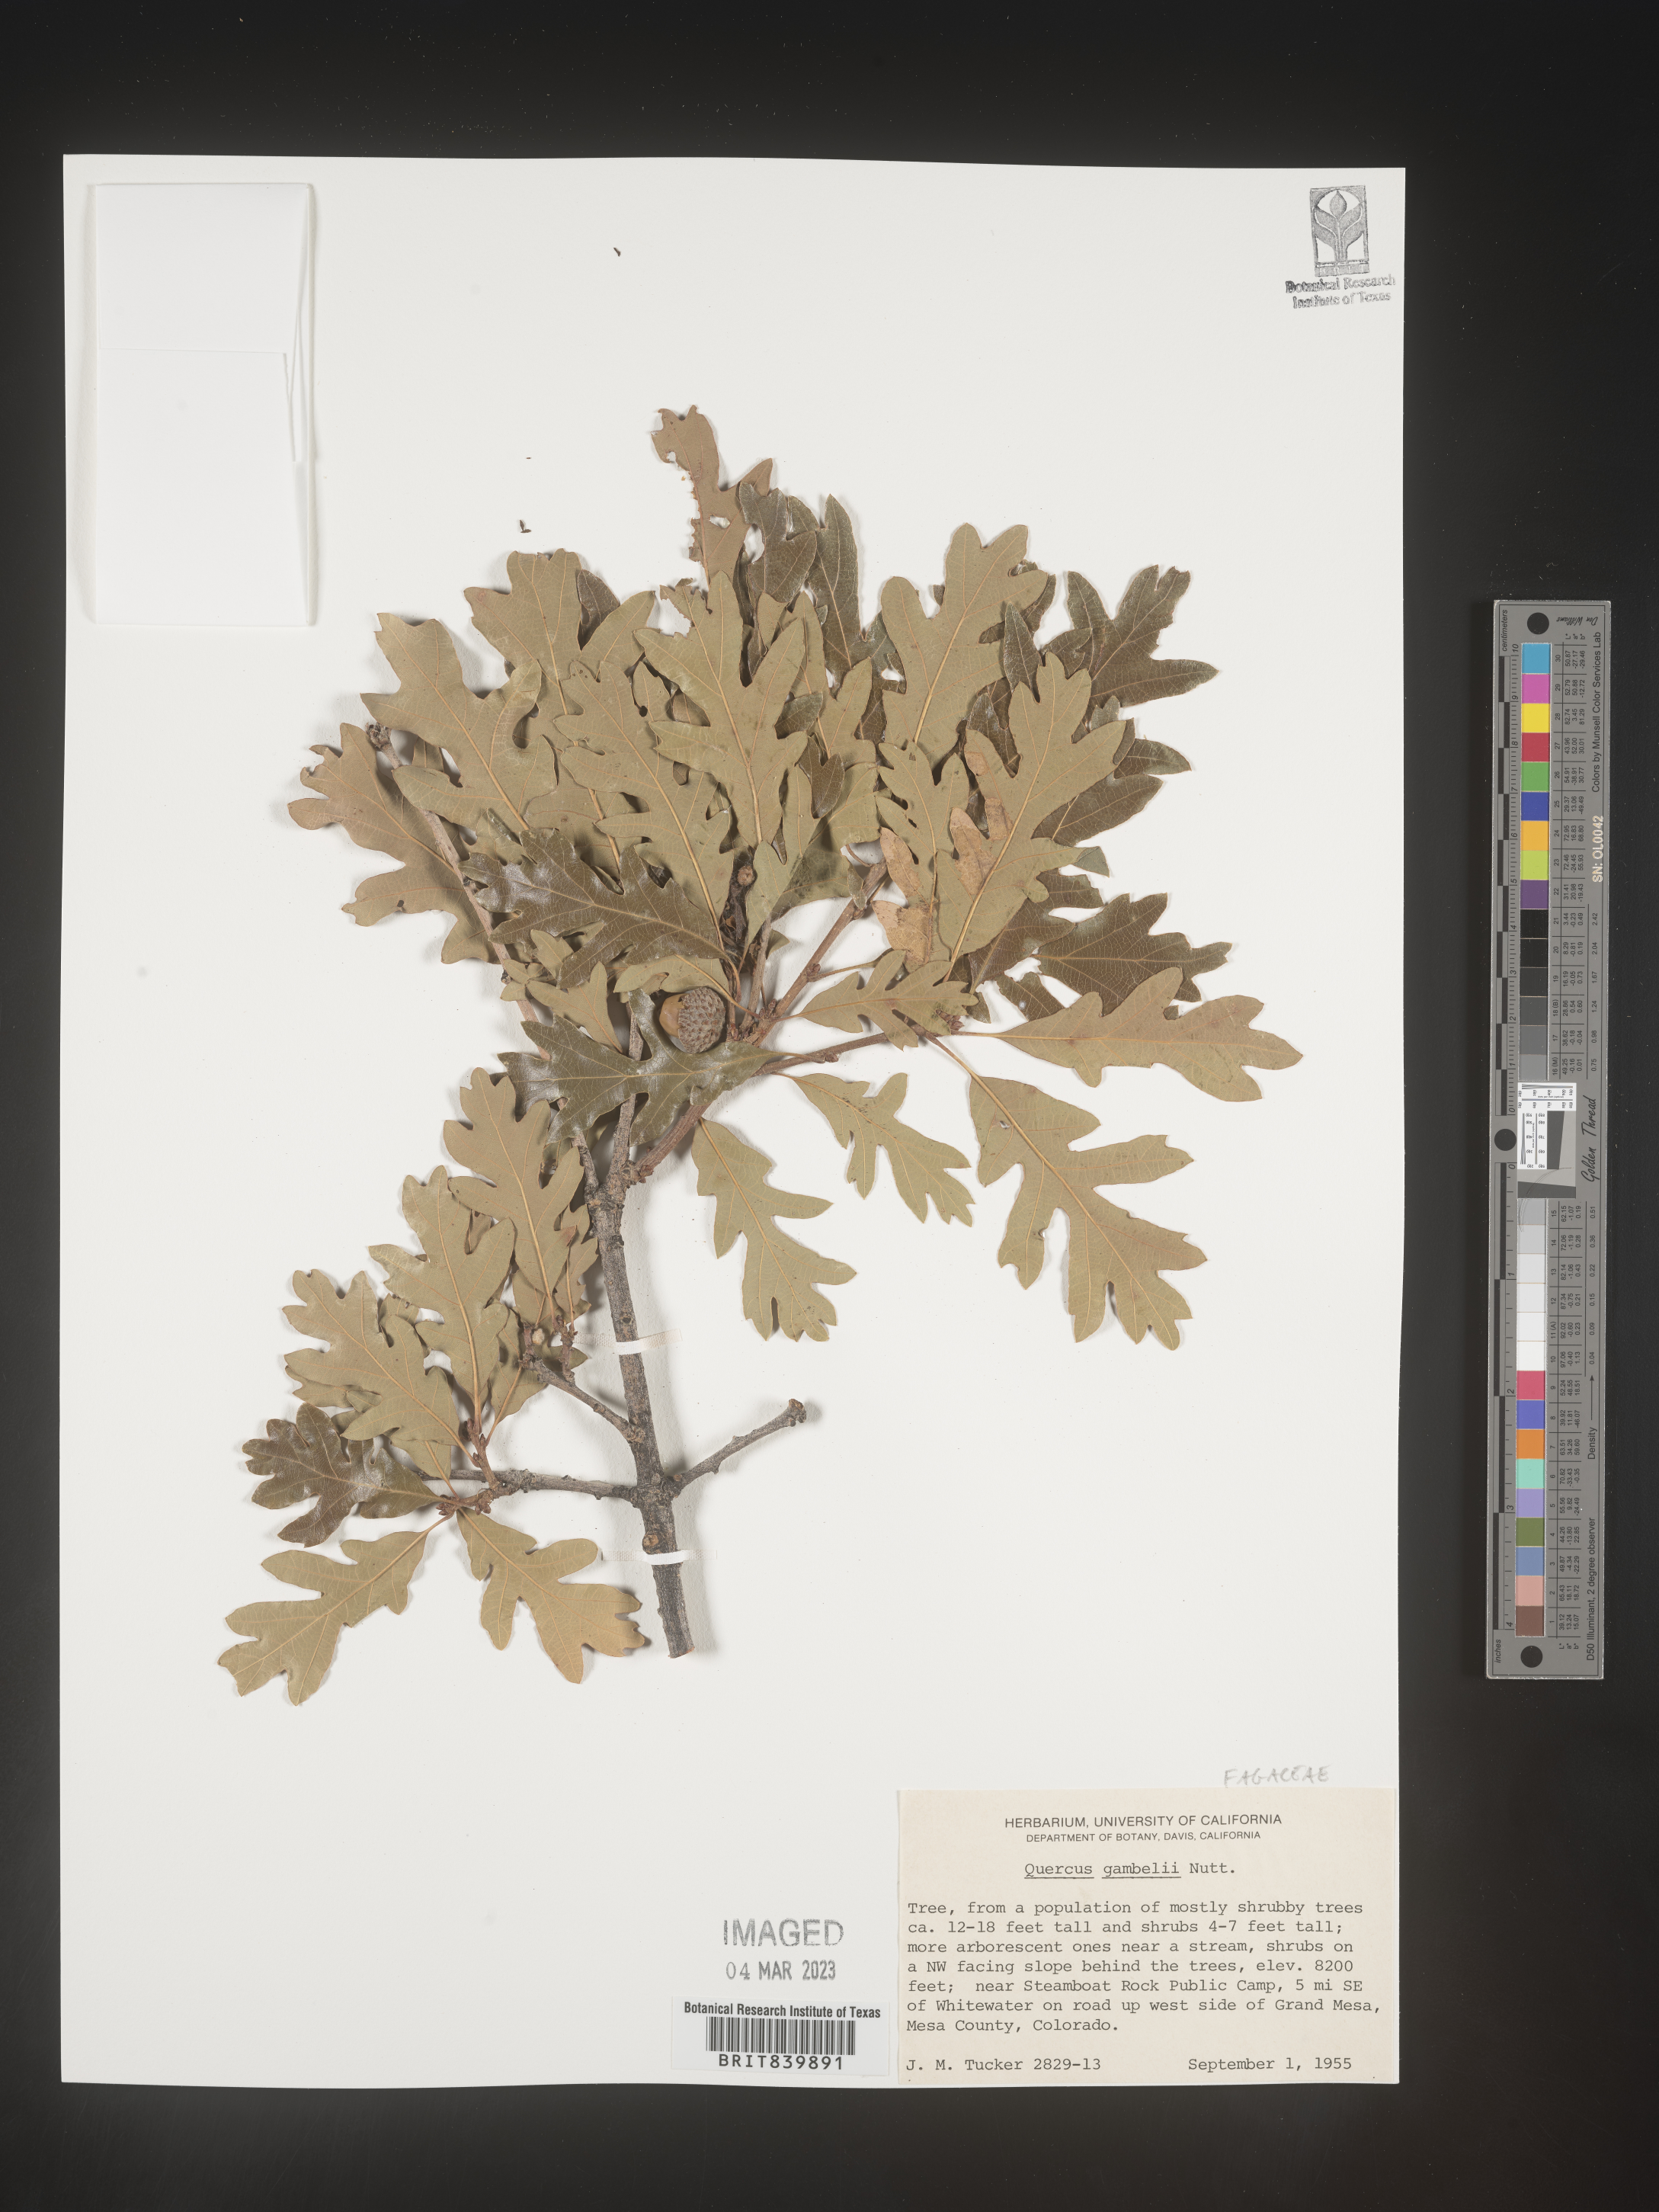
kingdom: Plantae
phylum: Tracheophyta
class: Magnoliopsida
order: Fagales
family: Fagaceae
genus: Quercus
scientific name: Quercus gambelii
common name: Gambel oak
